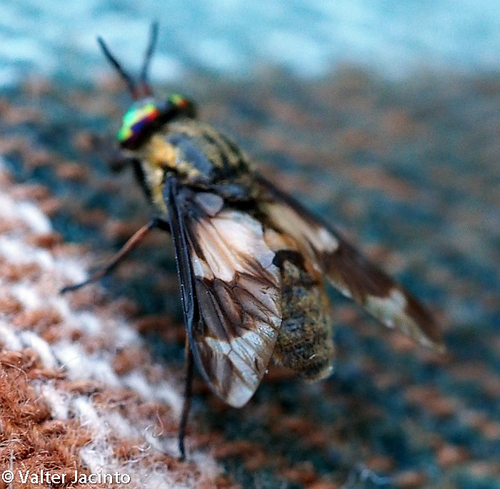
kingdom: Animalia
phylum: Arthropoda
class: Insecta
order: Diptera
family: Tabanidae
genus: Chrysops
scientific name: Chrysops caecutiens
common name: Splayed deerfly
